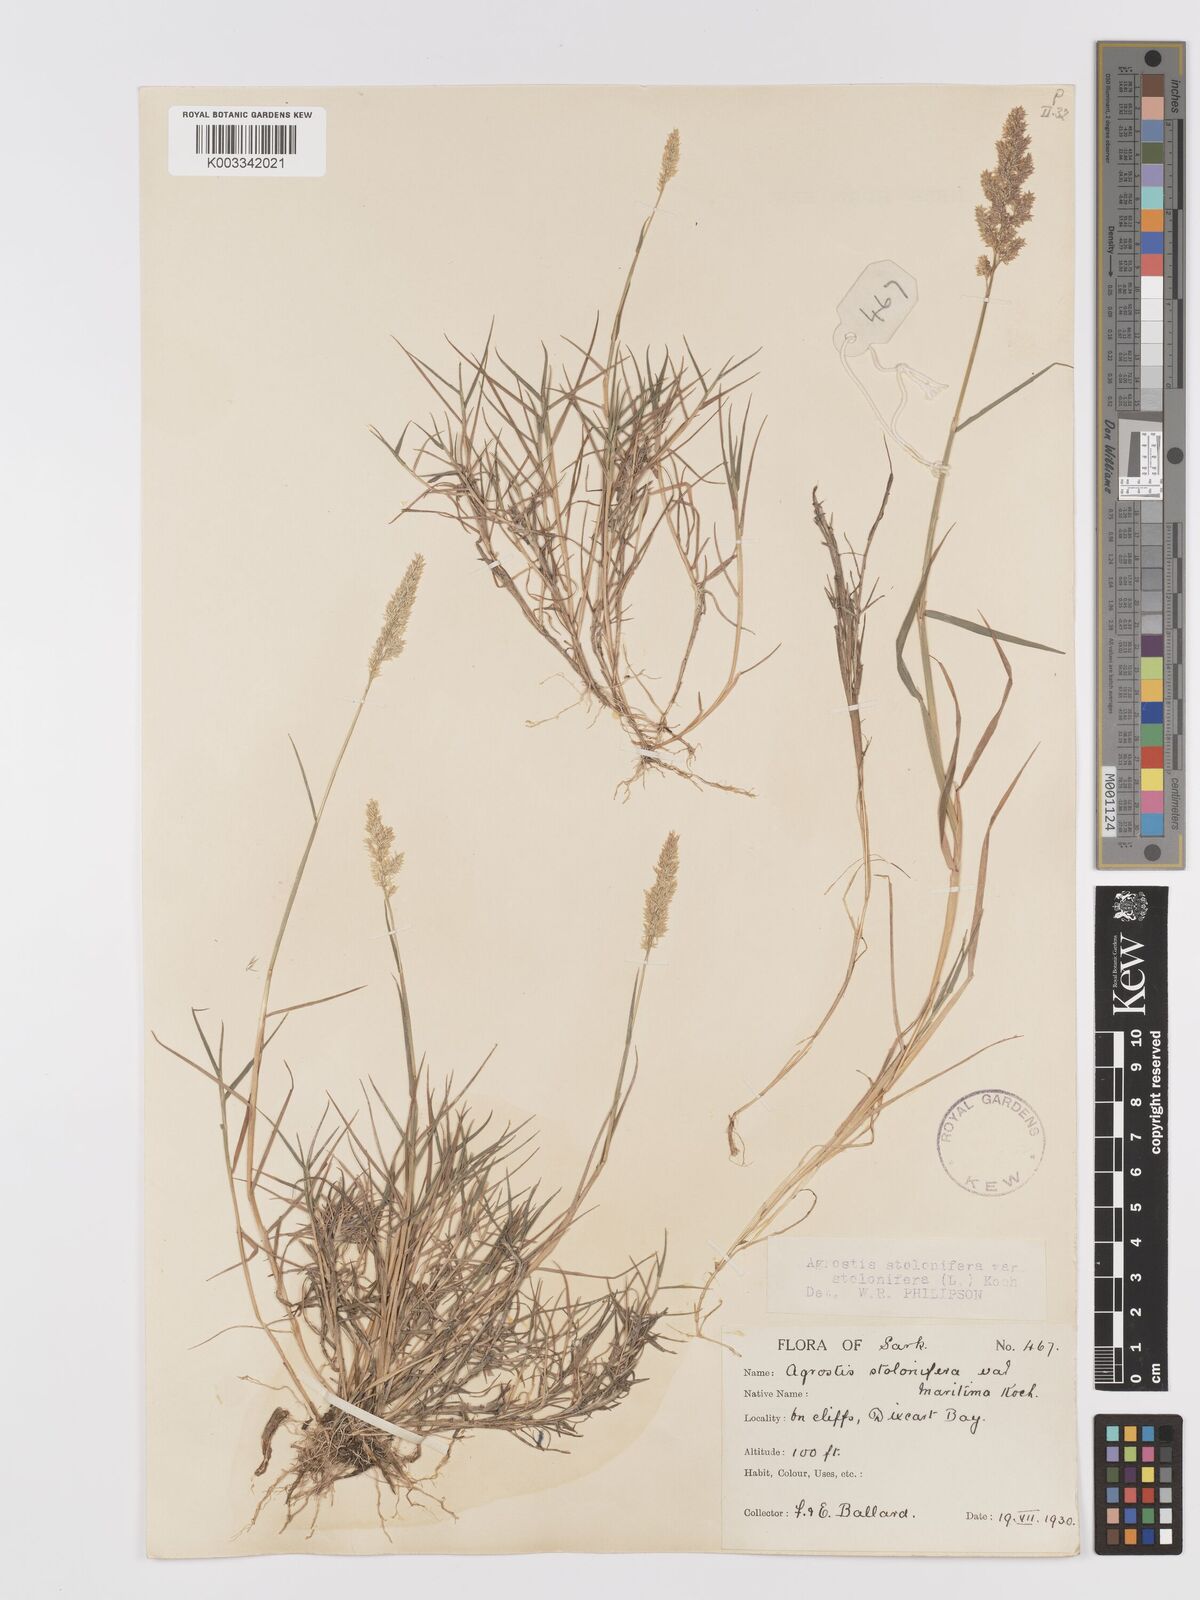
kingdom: Plantae
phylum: Tracheophyta
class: Liliopsida
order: Poales
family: Poaceae
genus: Agrostis
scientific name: Agrostis stolonifera
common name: Creeping bentgrass
